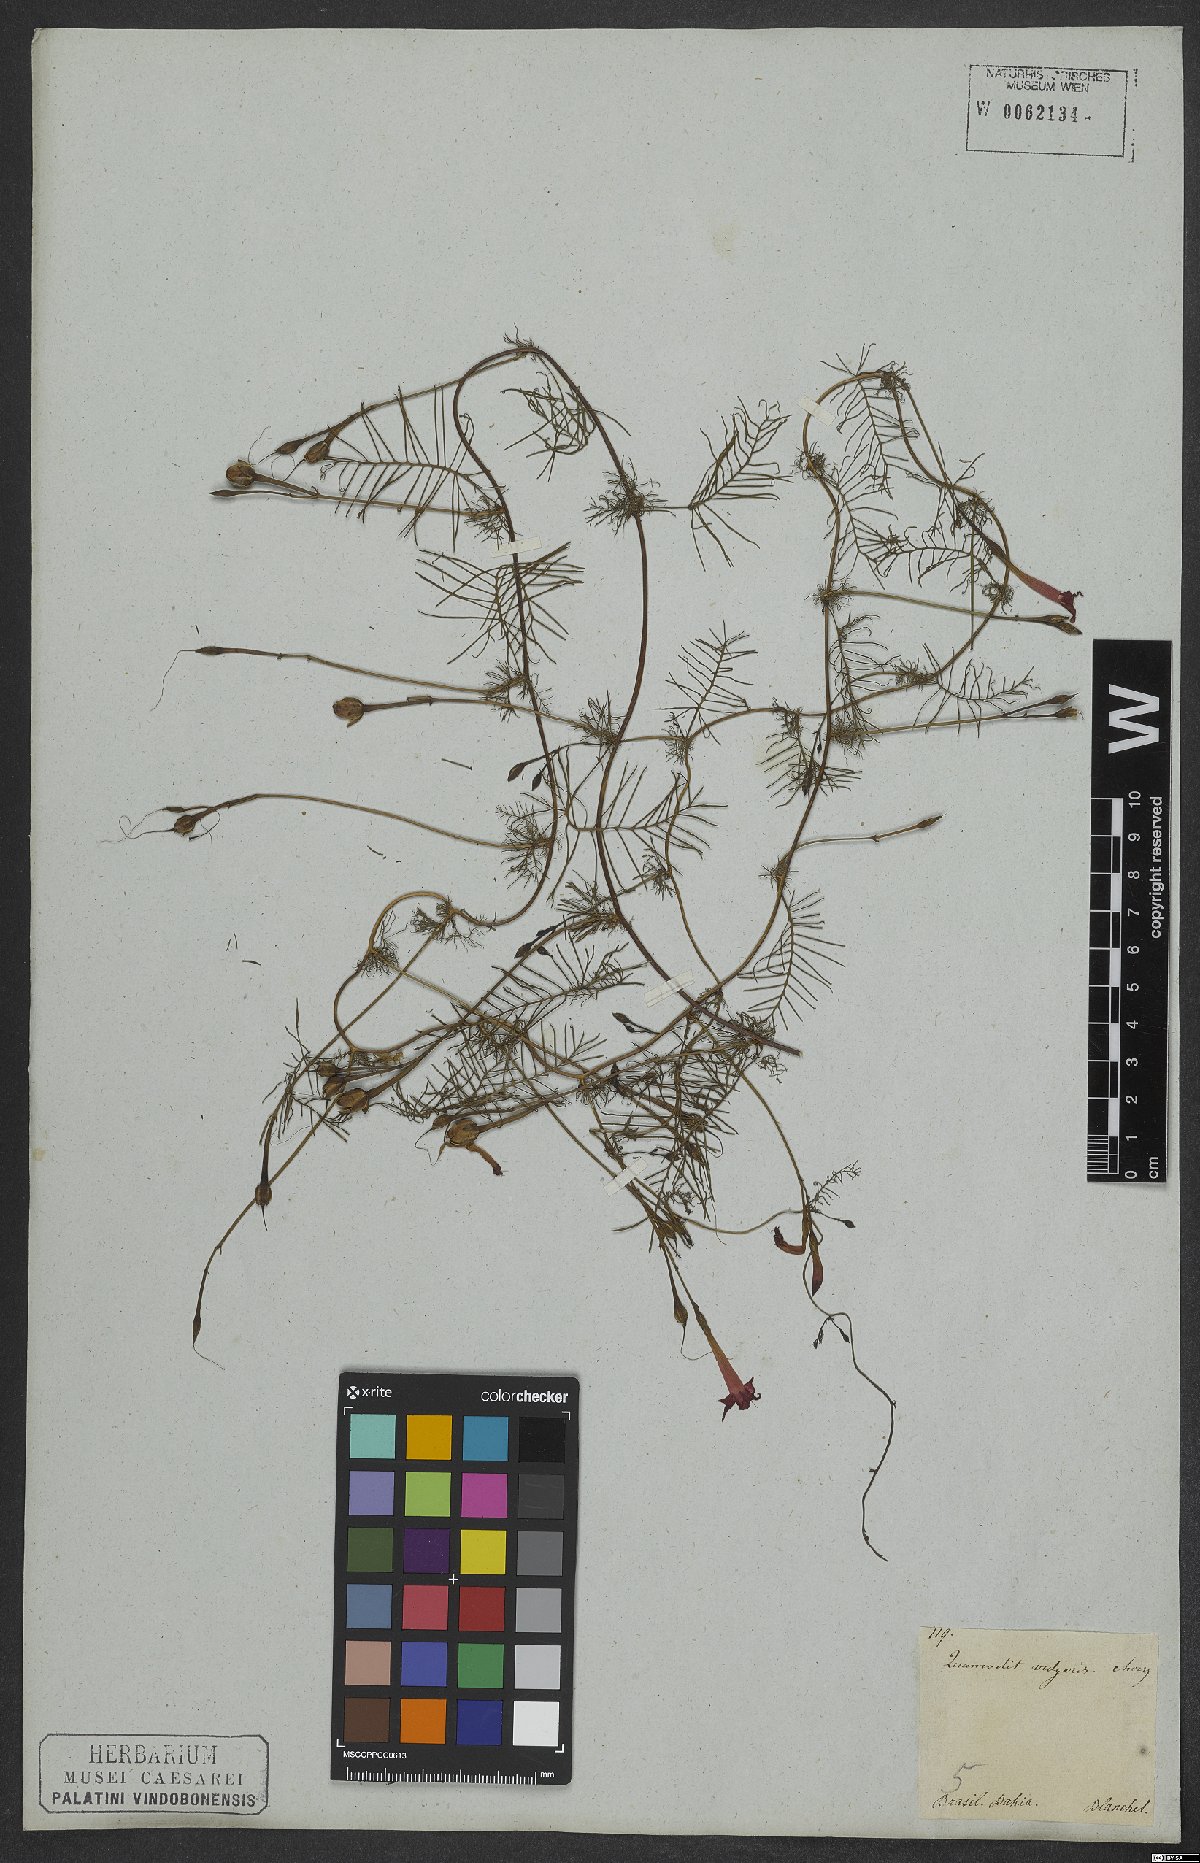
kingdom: Plantae
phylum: Tracheophyta
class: Magnoliopsida
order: Solanales
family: Convolvulaceae
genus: Ipomoea
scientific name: Ipomoea quamoclit
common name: Cypress vine
